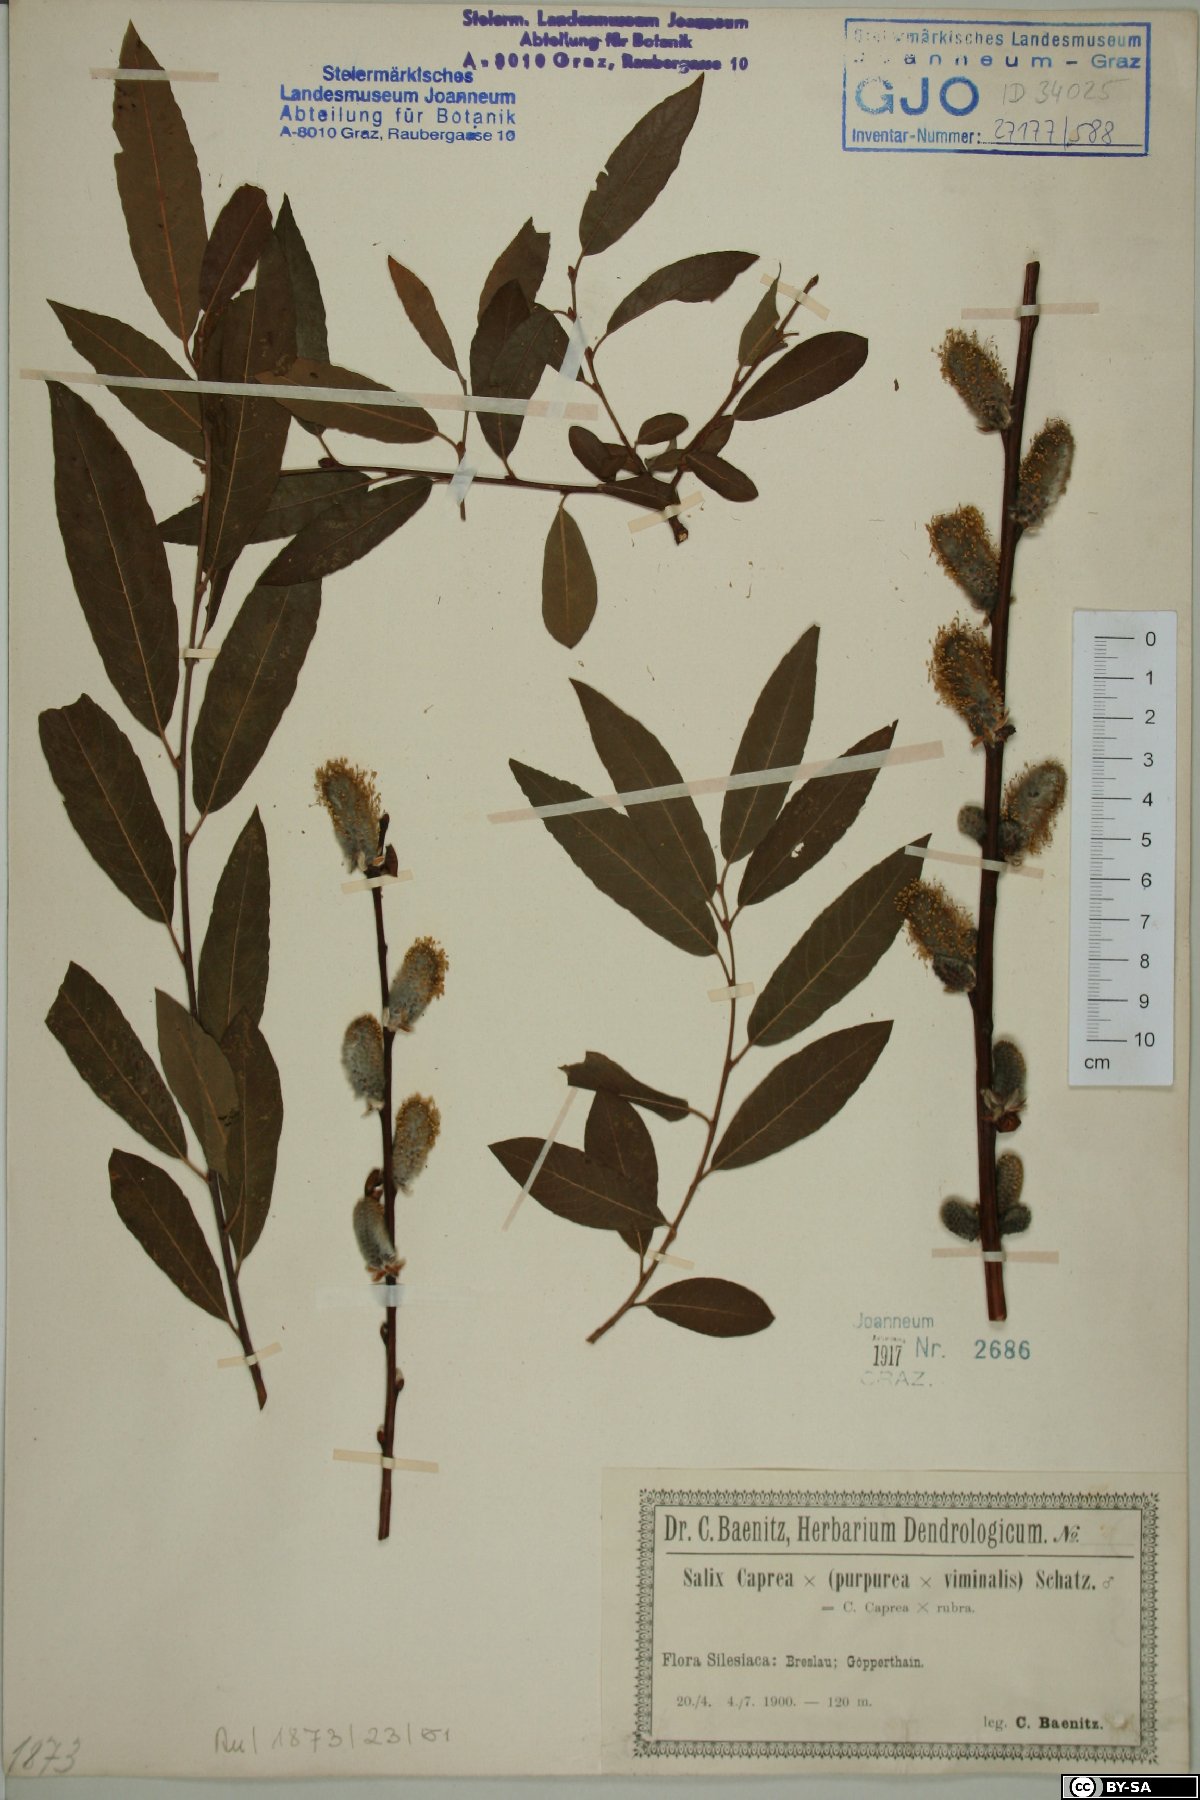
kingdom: Plantae
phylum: Tracheophyta
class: Magnoliopsida
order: Malpighiales
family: Salicaceae
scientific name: Salicaceae
